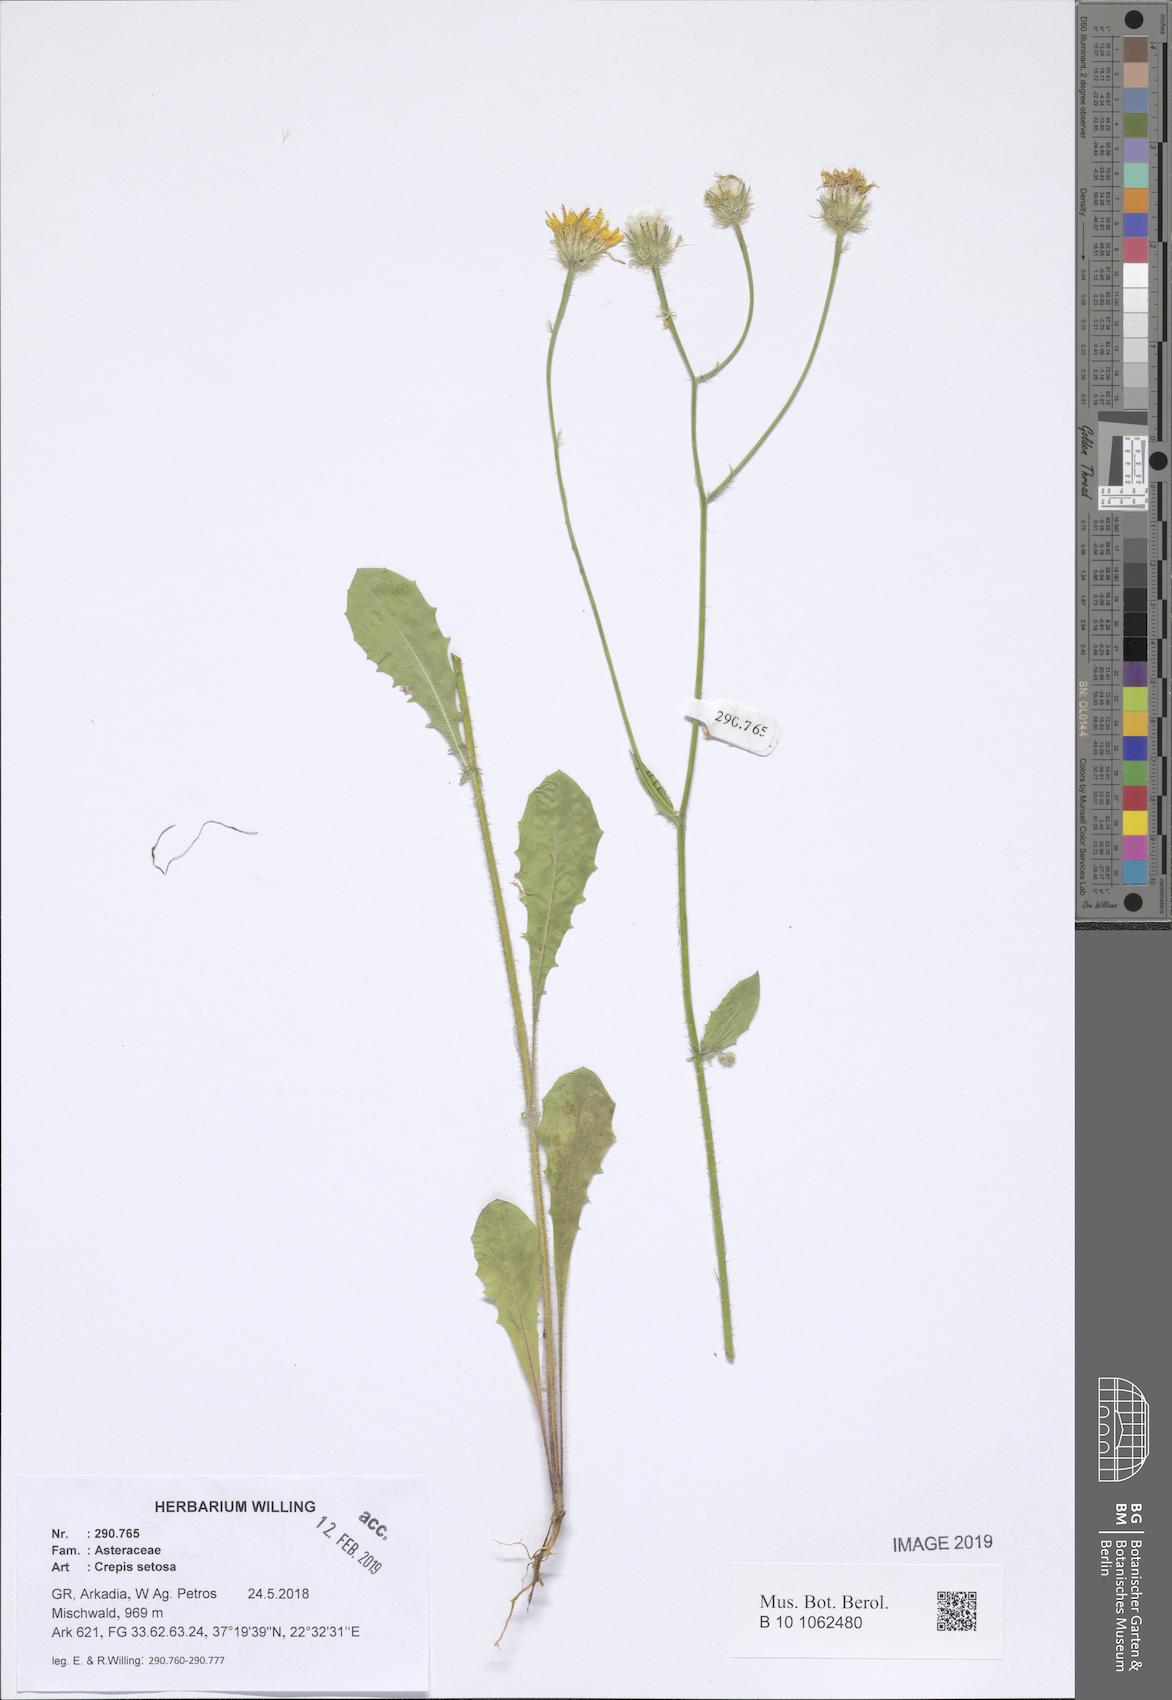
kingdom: Plantae
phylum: Tracheophyta
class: Magnoliopsida
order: Asterales
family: Asteraceae
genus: Crepis
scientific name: Crepis setosa
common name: Bristly hawk's-beard
